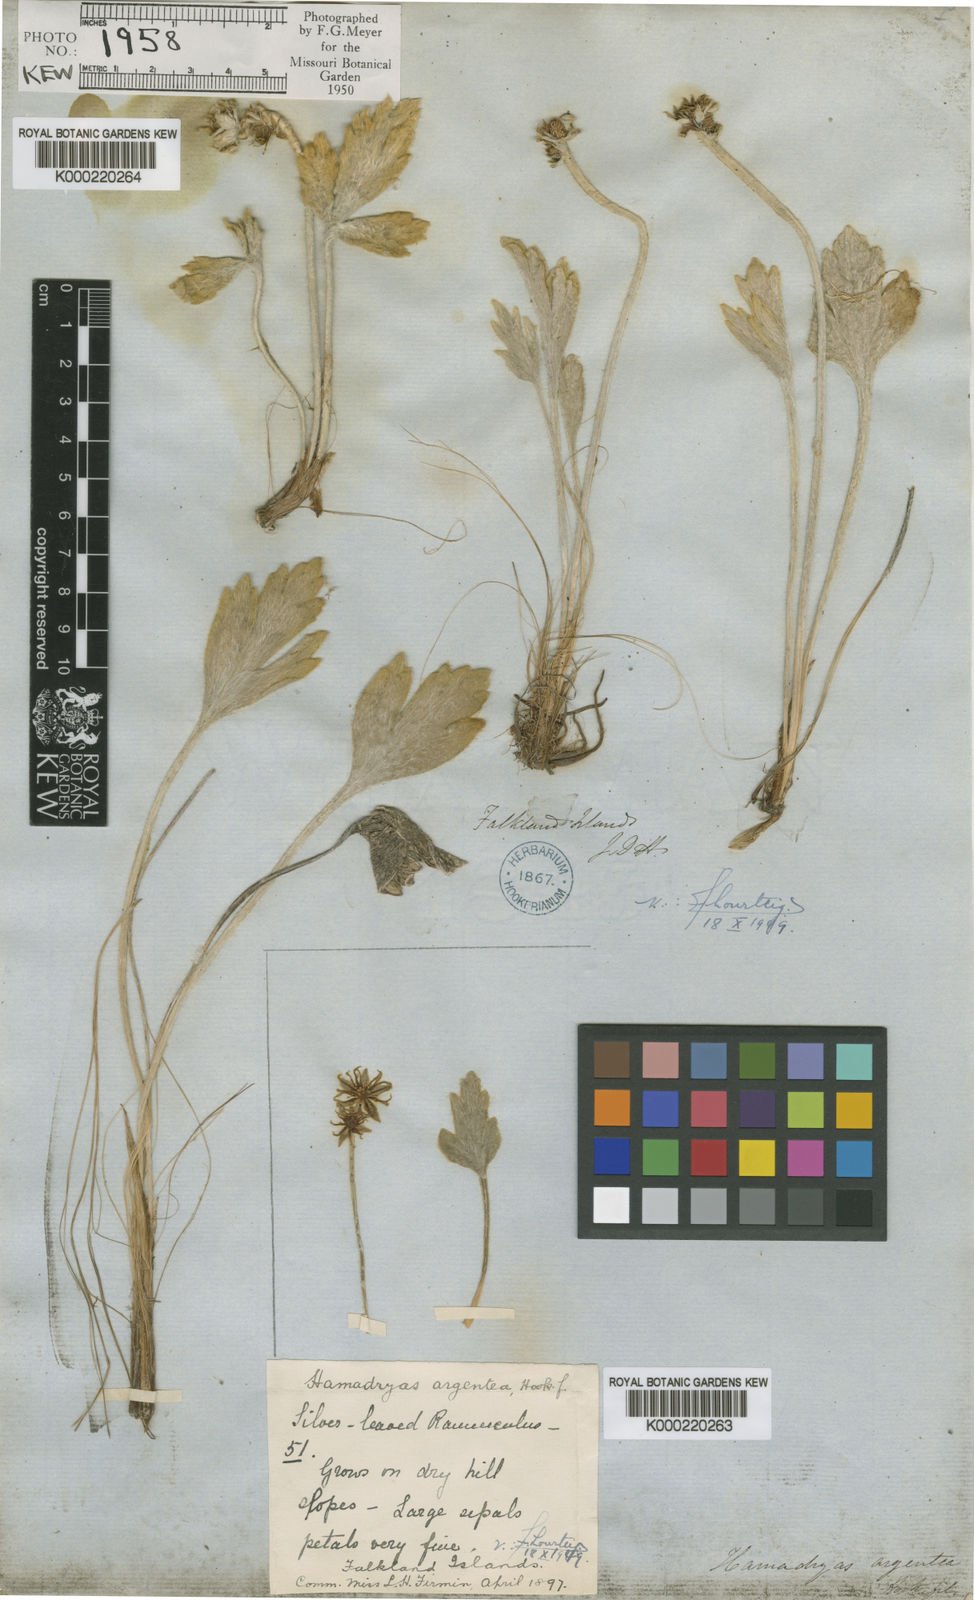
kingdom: Plantae
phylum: Tracheophyta
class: Magnoliopsida
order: Ranunculales
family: Ranunculaceae
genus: Hamadryas
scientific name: Hamadryas argentea
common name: Silvery buttercup
